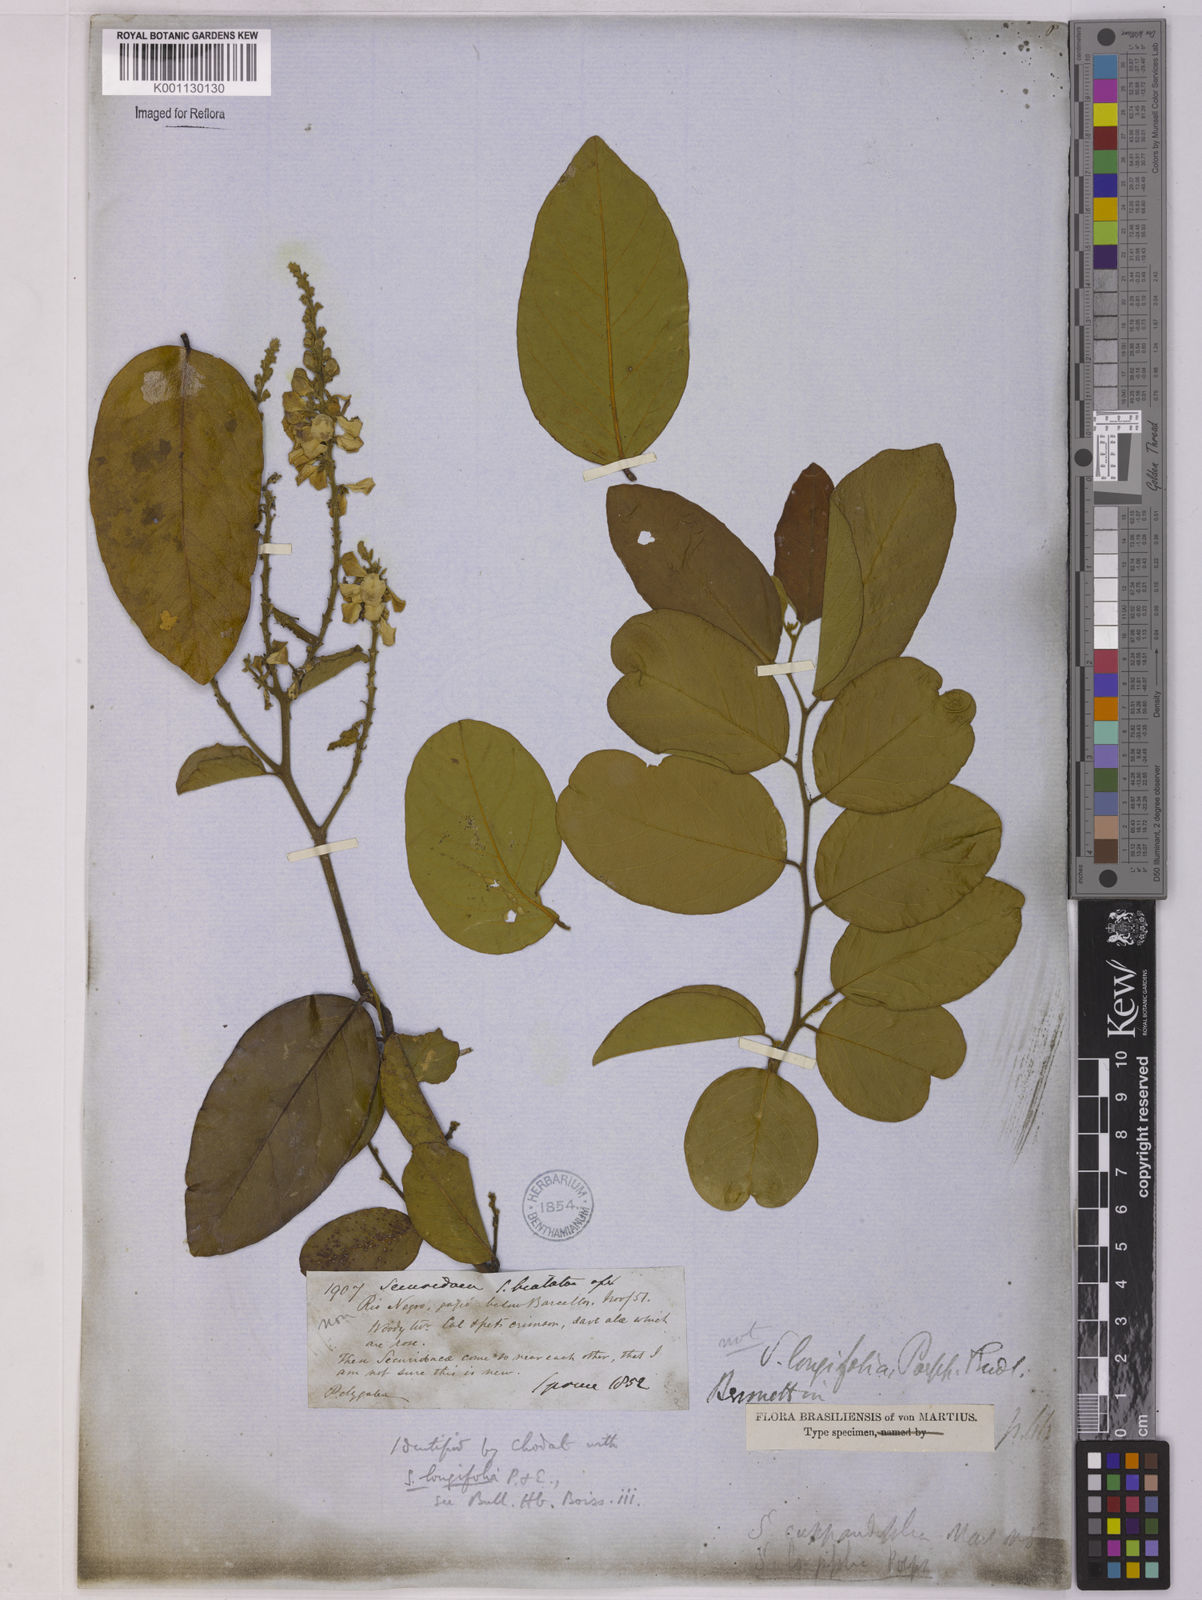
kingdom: Plantae
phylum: Tracheophyta
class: Magnoliopsida
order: Fabales
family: Polygalaceae
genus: Securidaca
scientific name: Securidaca longifolia
